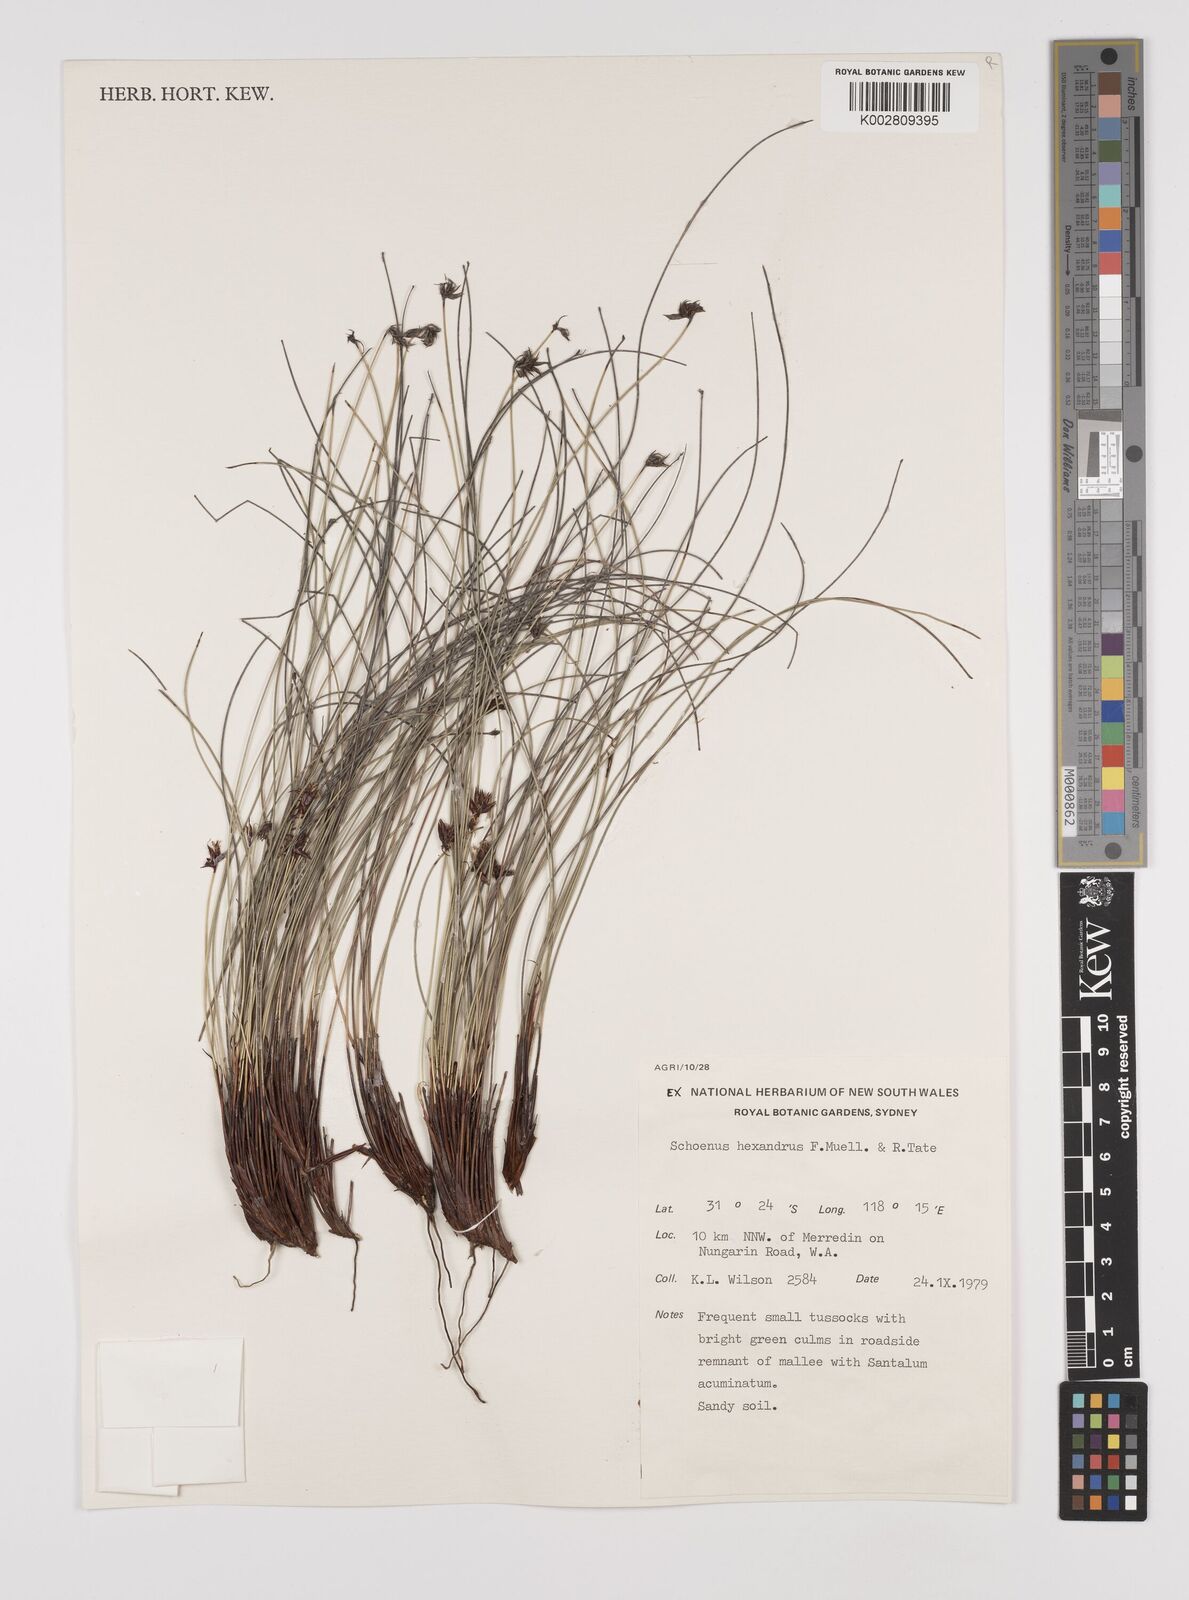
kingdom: Plantae
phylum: Tracheophyta
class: Liliopsida
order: Poales
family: Cyperaceae
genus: Schoenus
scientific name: Schoenus hexander
